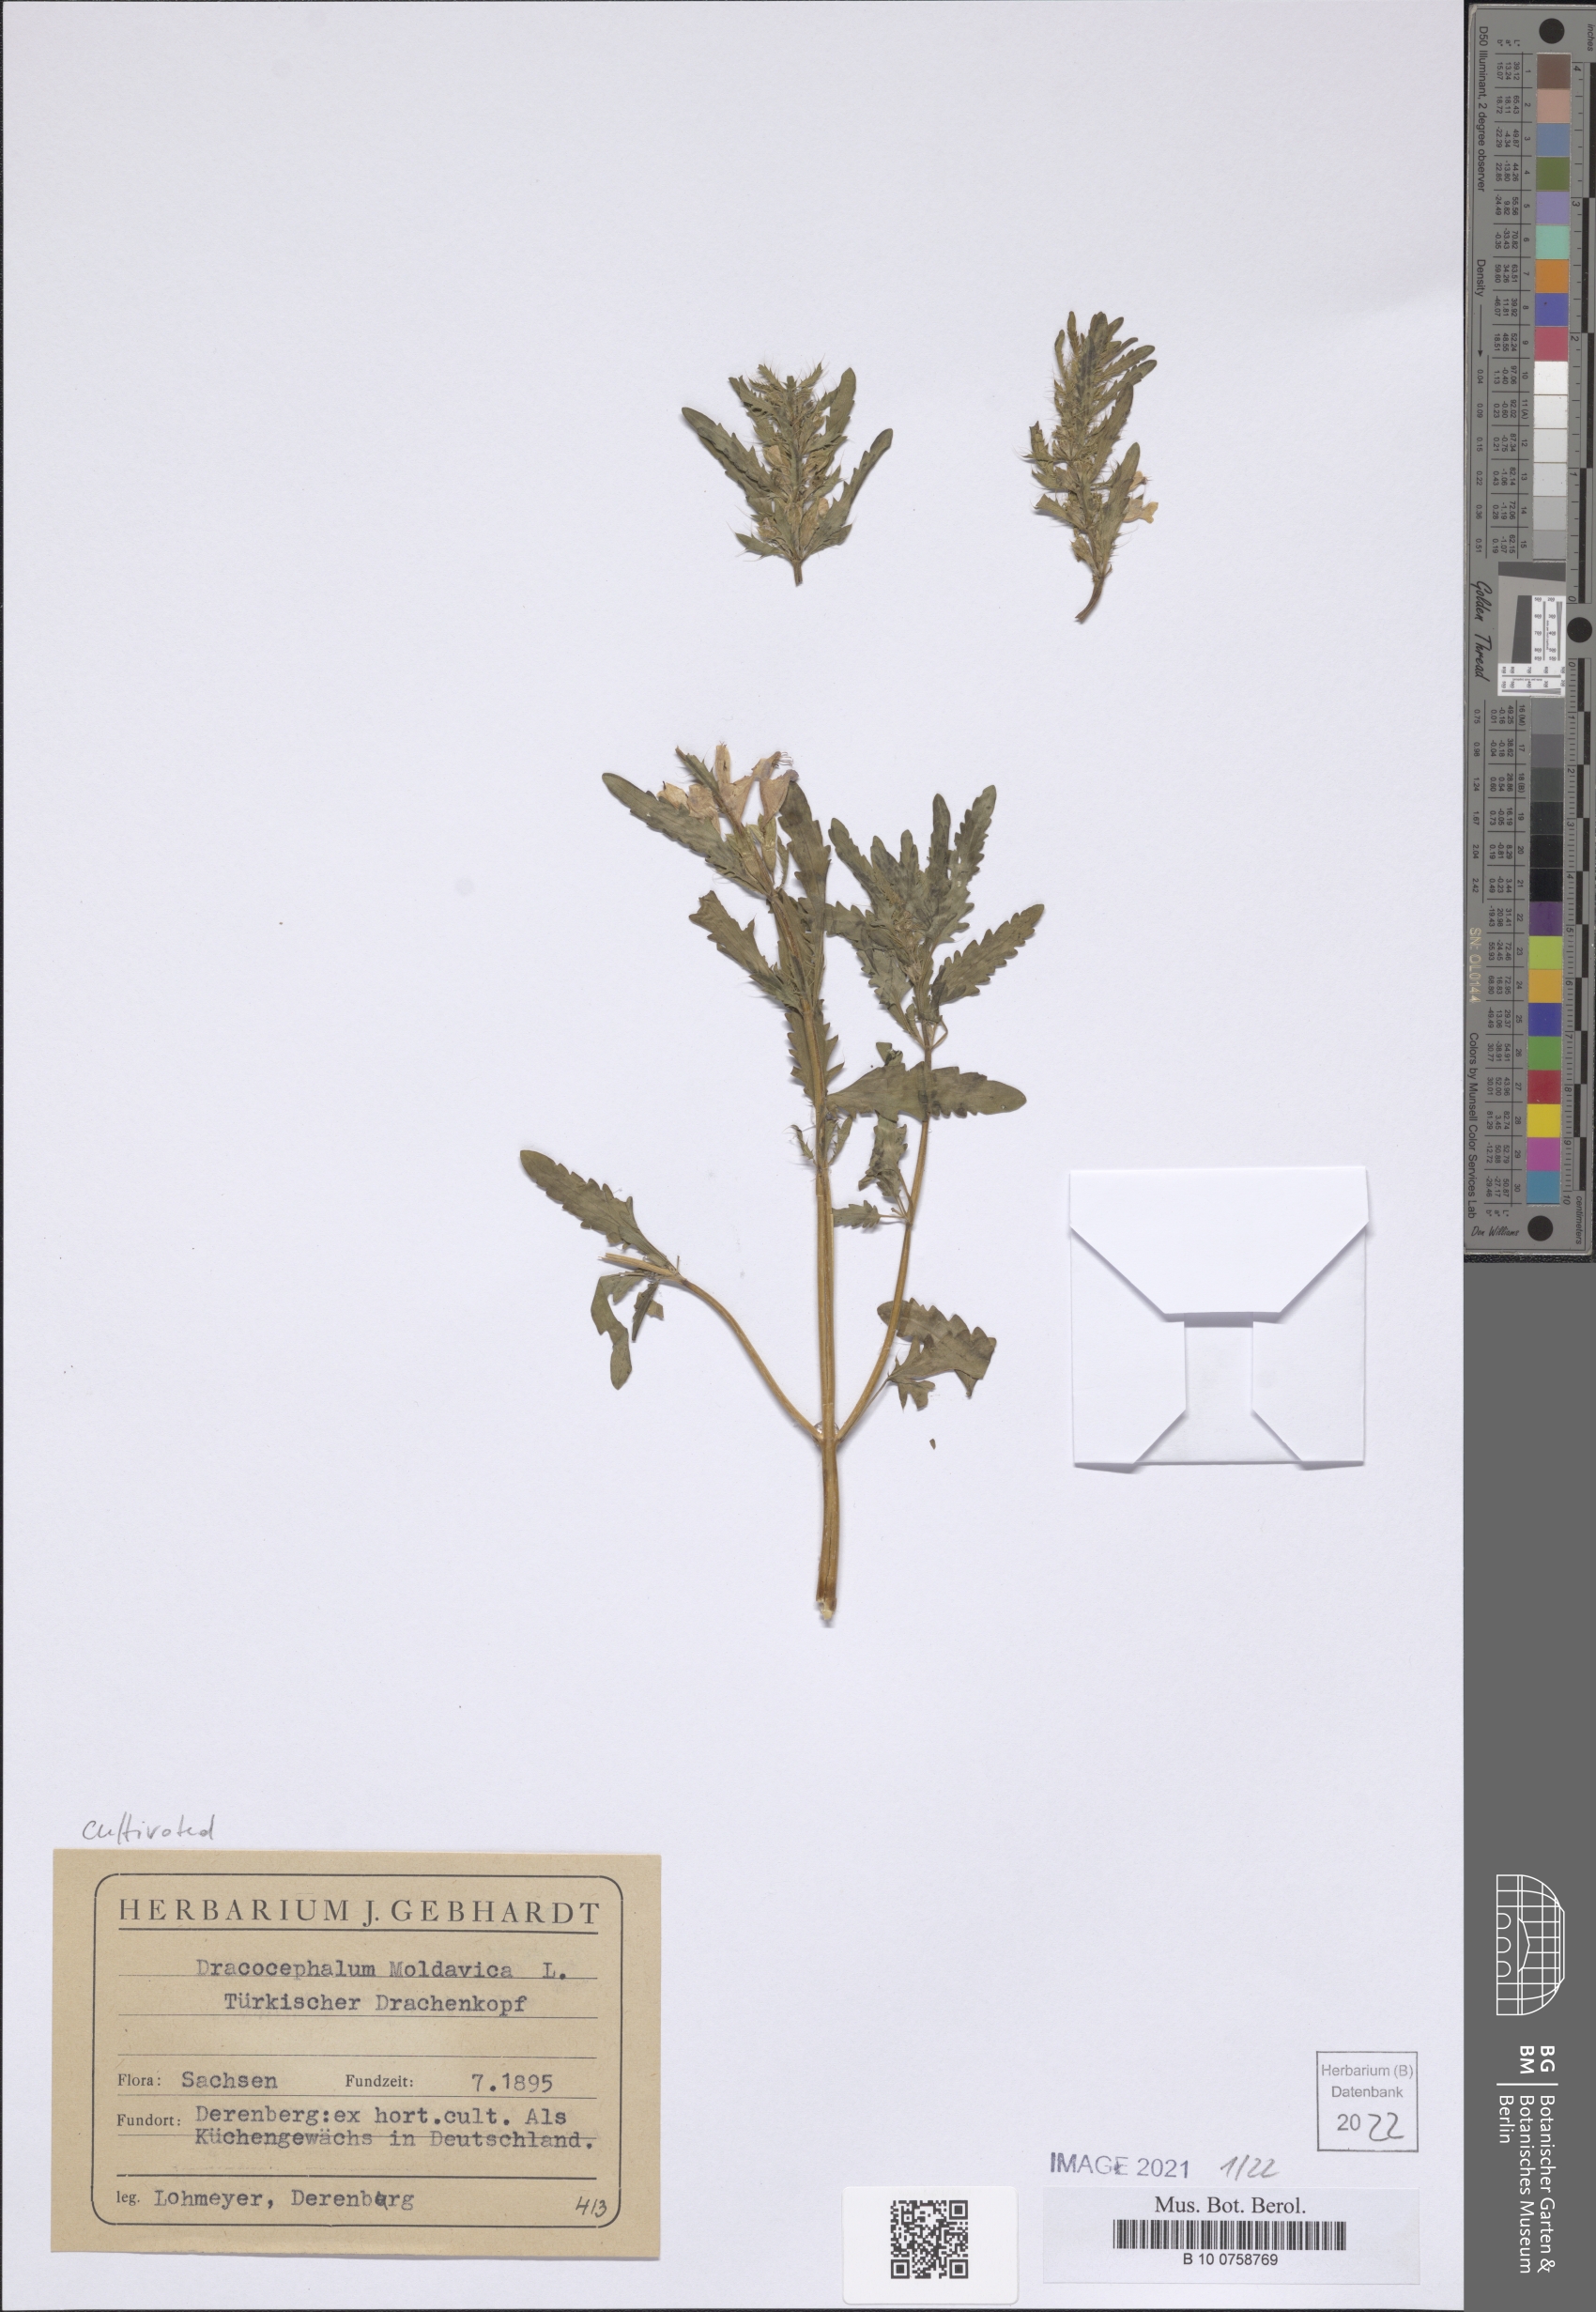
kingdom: Plantae
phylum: Tracheophyta
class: Magnoliopsida
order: Lamiales
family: Lamiaceae
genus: Dracocephalum
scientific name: Dracocephalum moldavica
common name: Moldavian dragonhead
